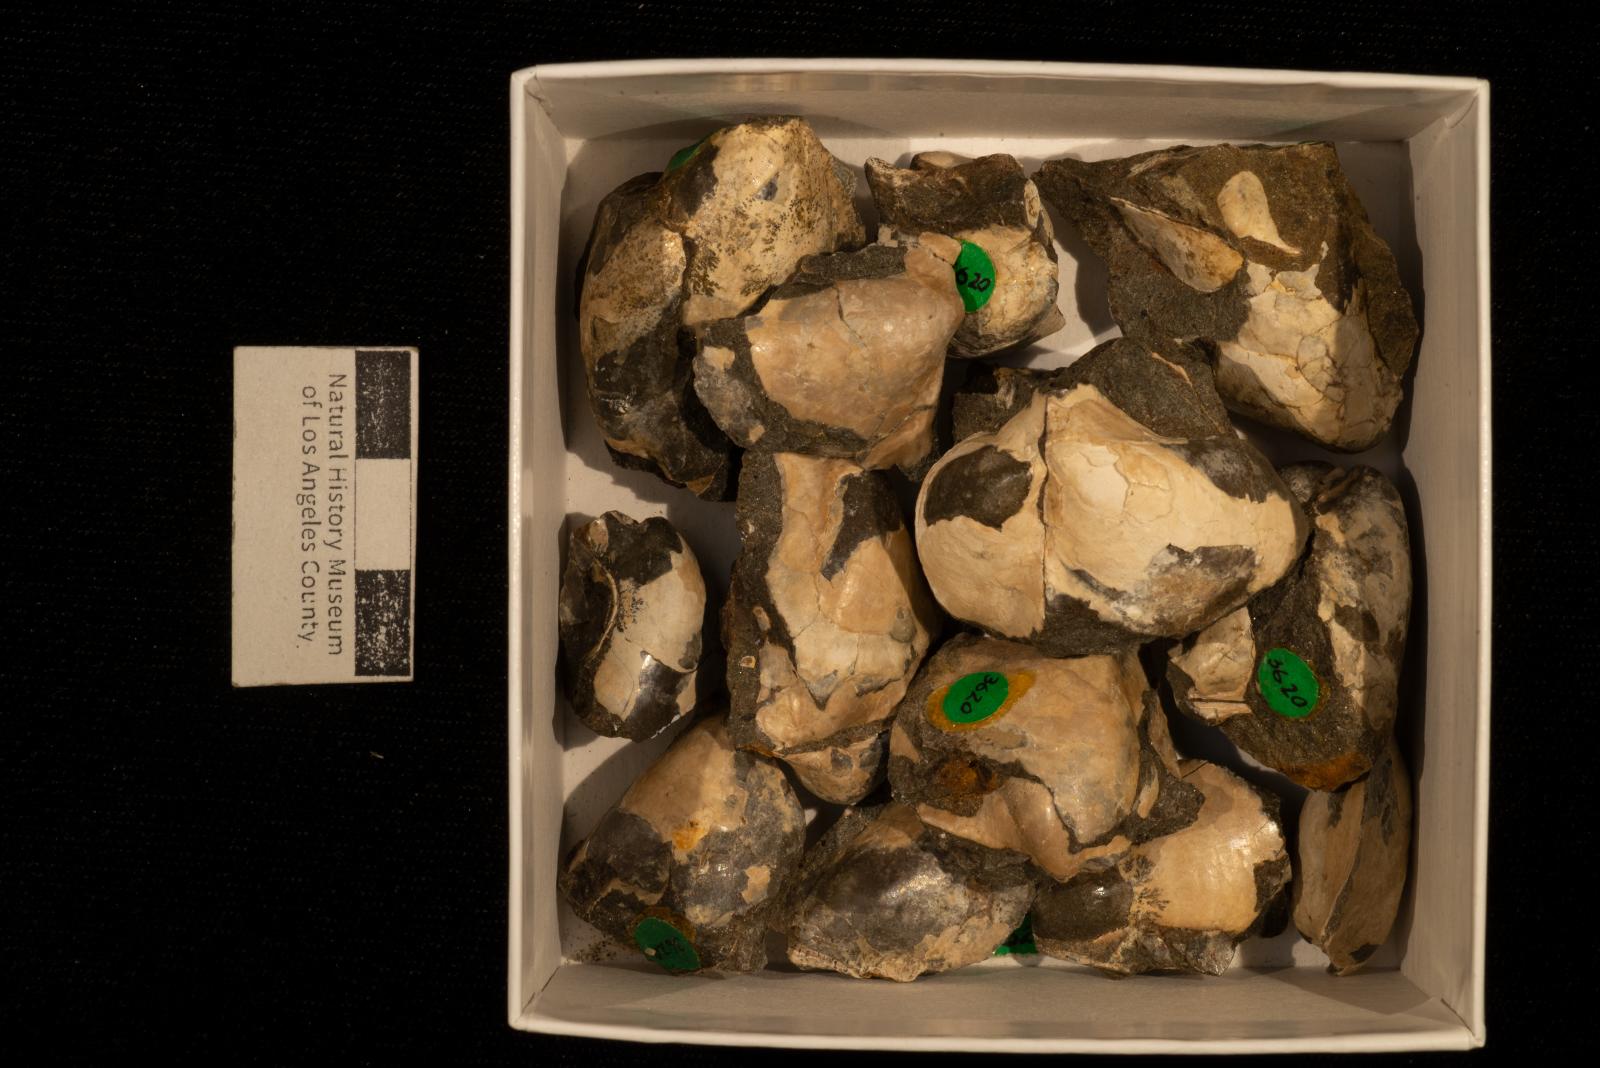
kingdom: Animalia
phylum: Mollusca
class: Bivalvia
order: Ostreida
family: Pteriidae
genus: Pteria
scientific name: Pteria pellucida
